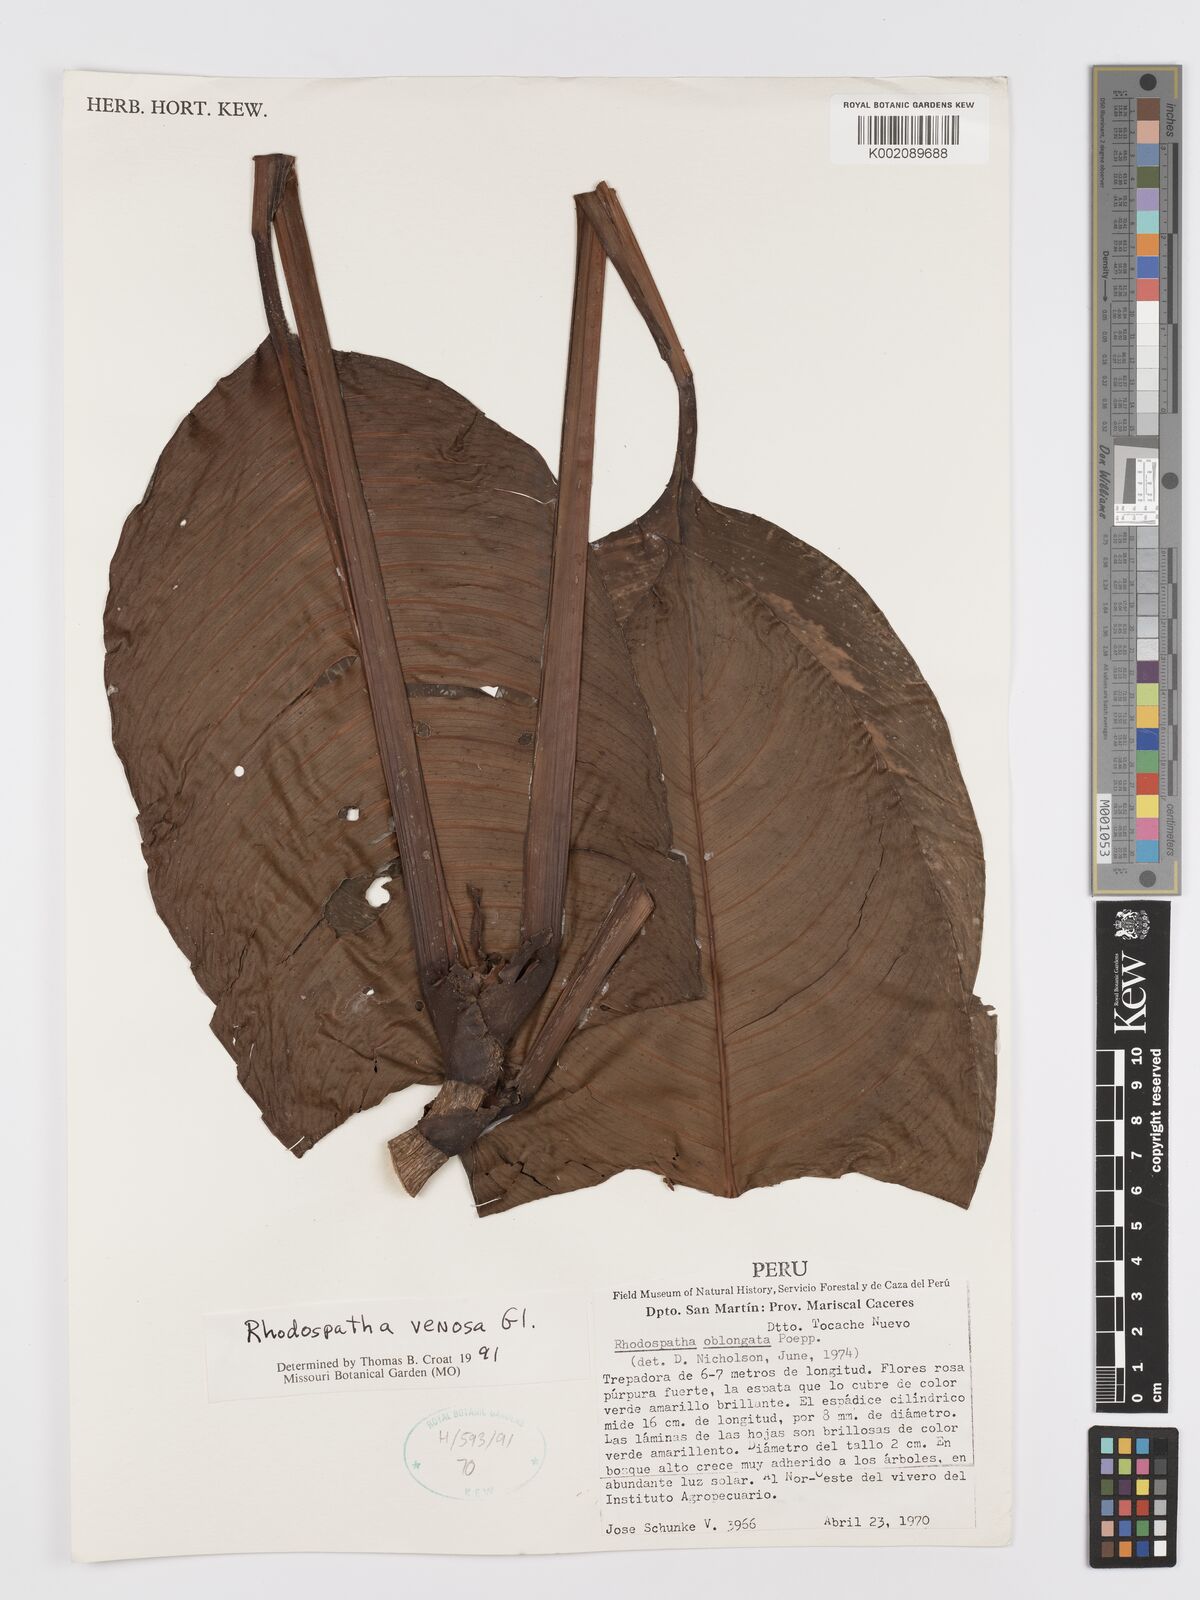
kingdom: Plantae
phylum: Tracheophyta
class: Liliopsida
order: Alismatales
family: Araceae
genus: Rhodospatha
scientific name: Rhodospatha venosa
